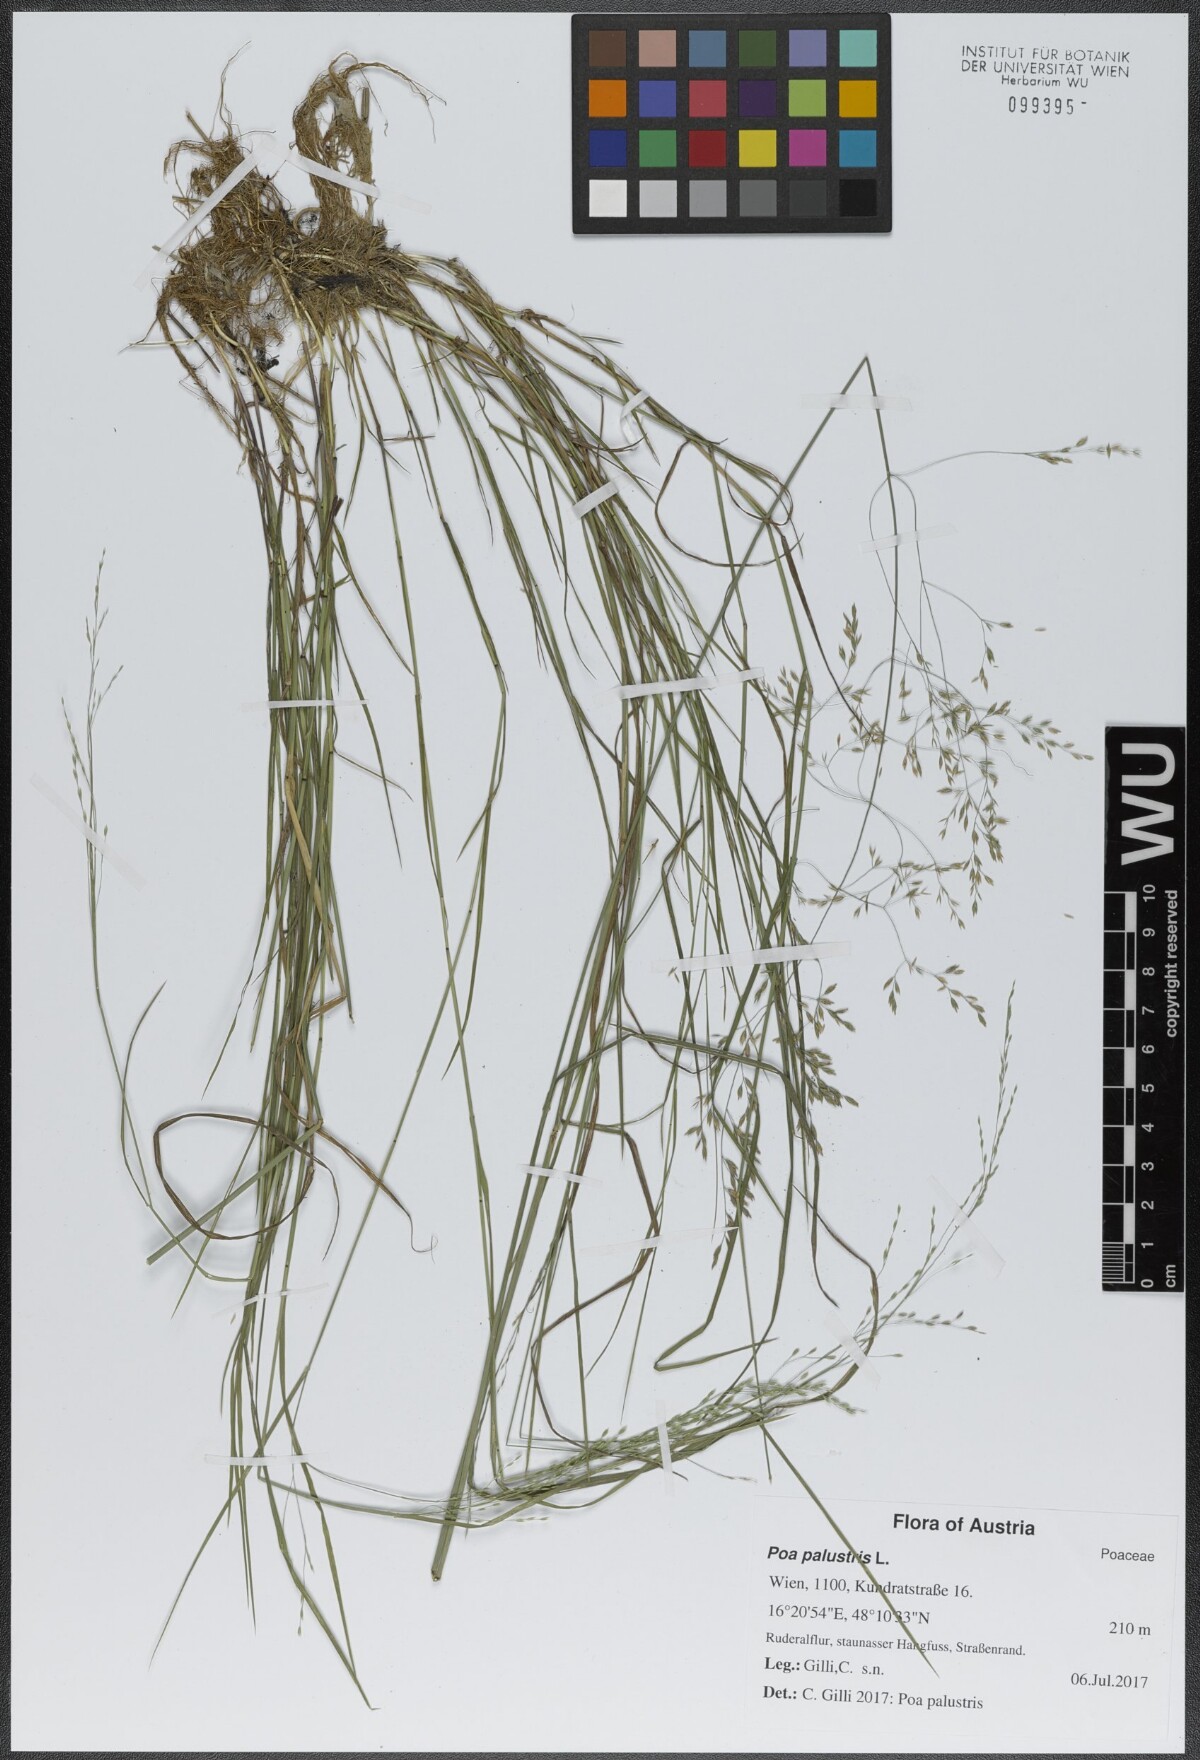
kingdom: Plantae
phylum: Tracheophyta
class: Liliopsida
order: Poales
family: Poaceae
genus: Poa
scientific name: Poa palustris
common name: Swamp meadow-grass
